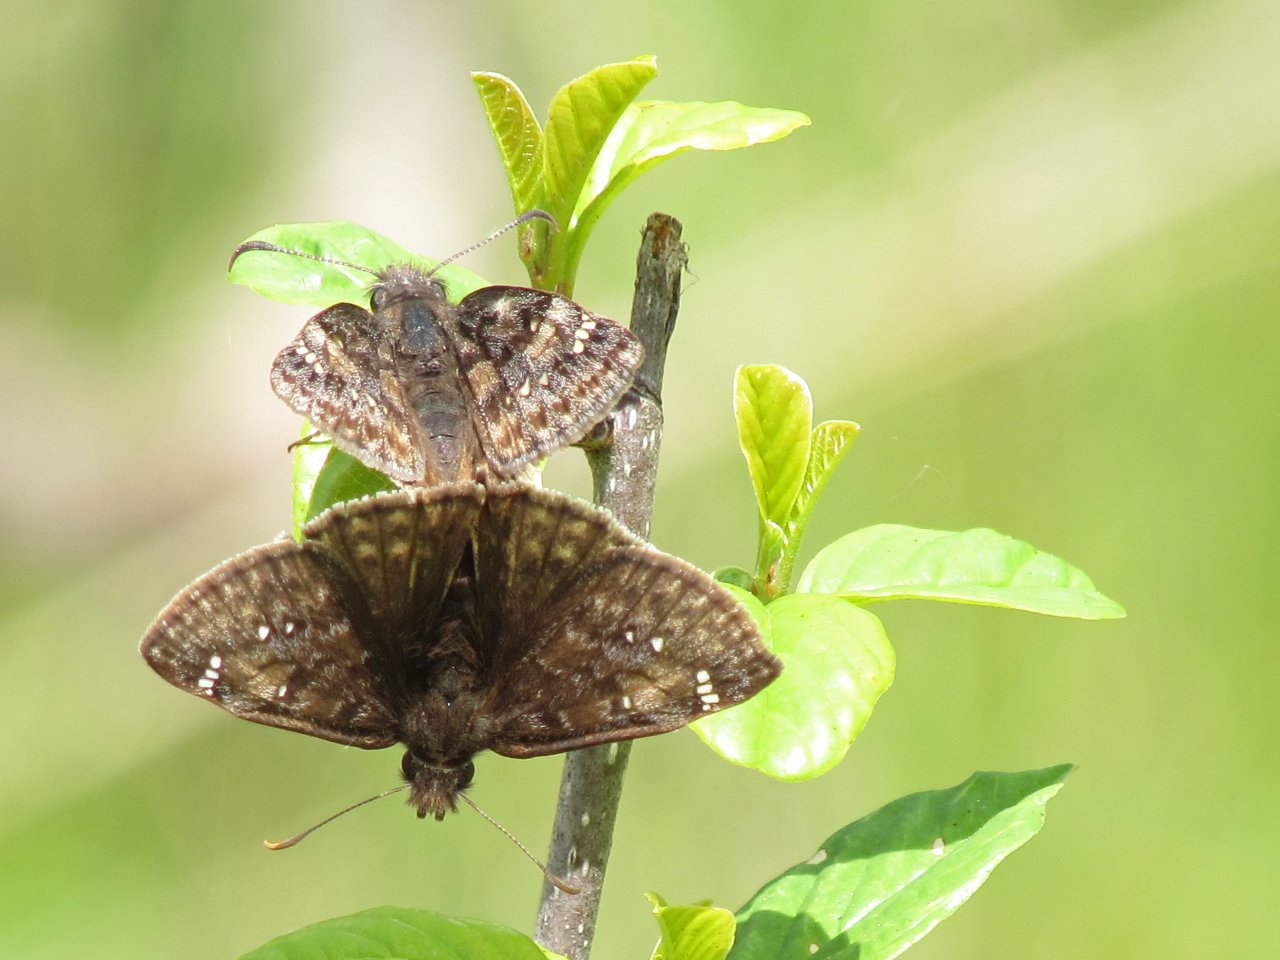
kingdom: Animalia
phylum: Arthropoda
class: Insecta
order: Lepidoptera
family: Hesperiidae
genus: Gesta
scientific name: Gesta
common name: Juvenal's Duskywing
